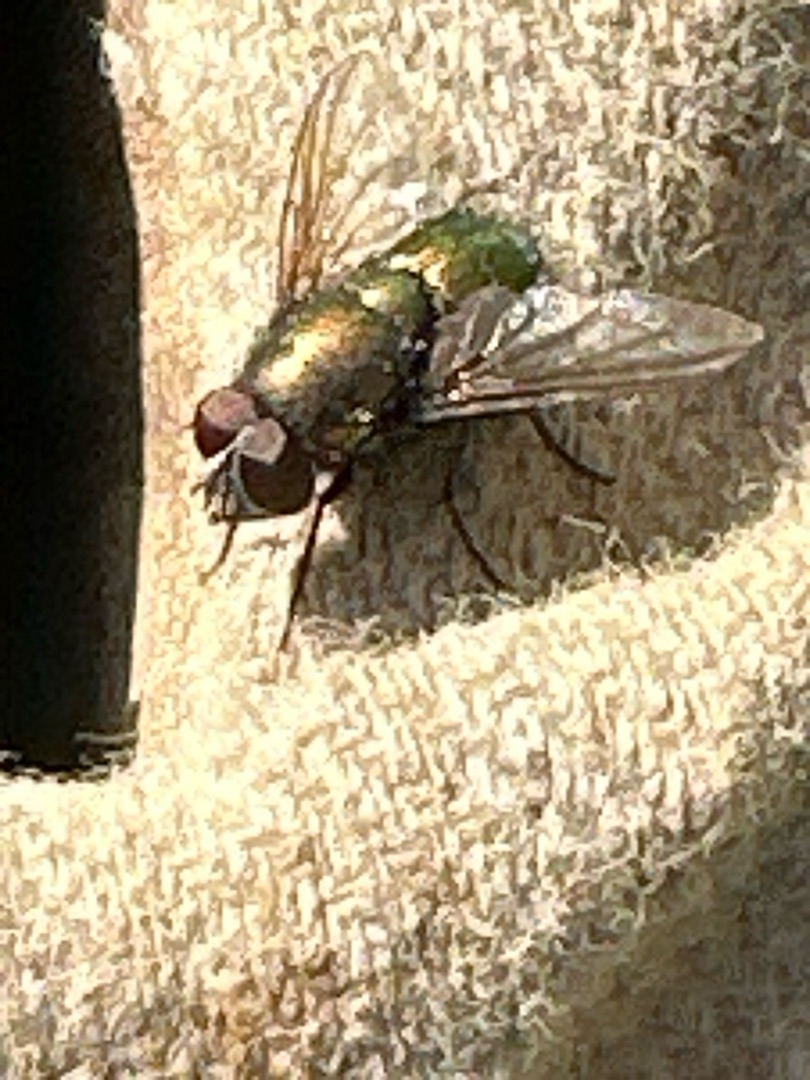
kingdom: Animalia
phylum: Arthropoda
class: Insecta
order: Diptera
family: Calliphoridae
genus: Lucilia
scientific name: Lucilia
